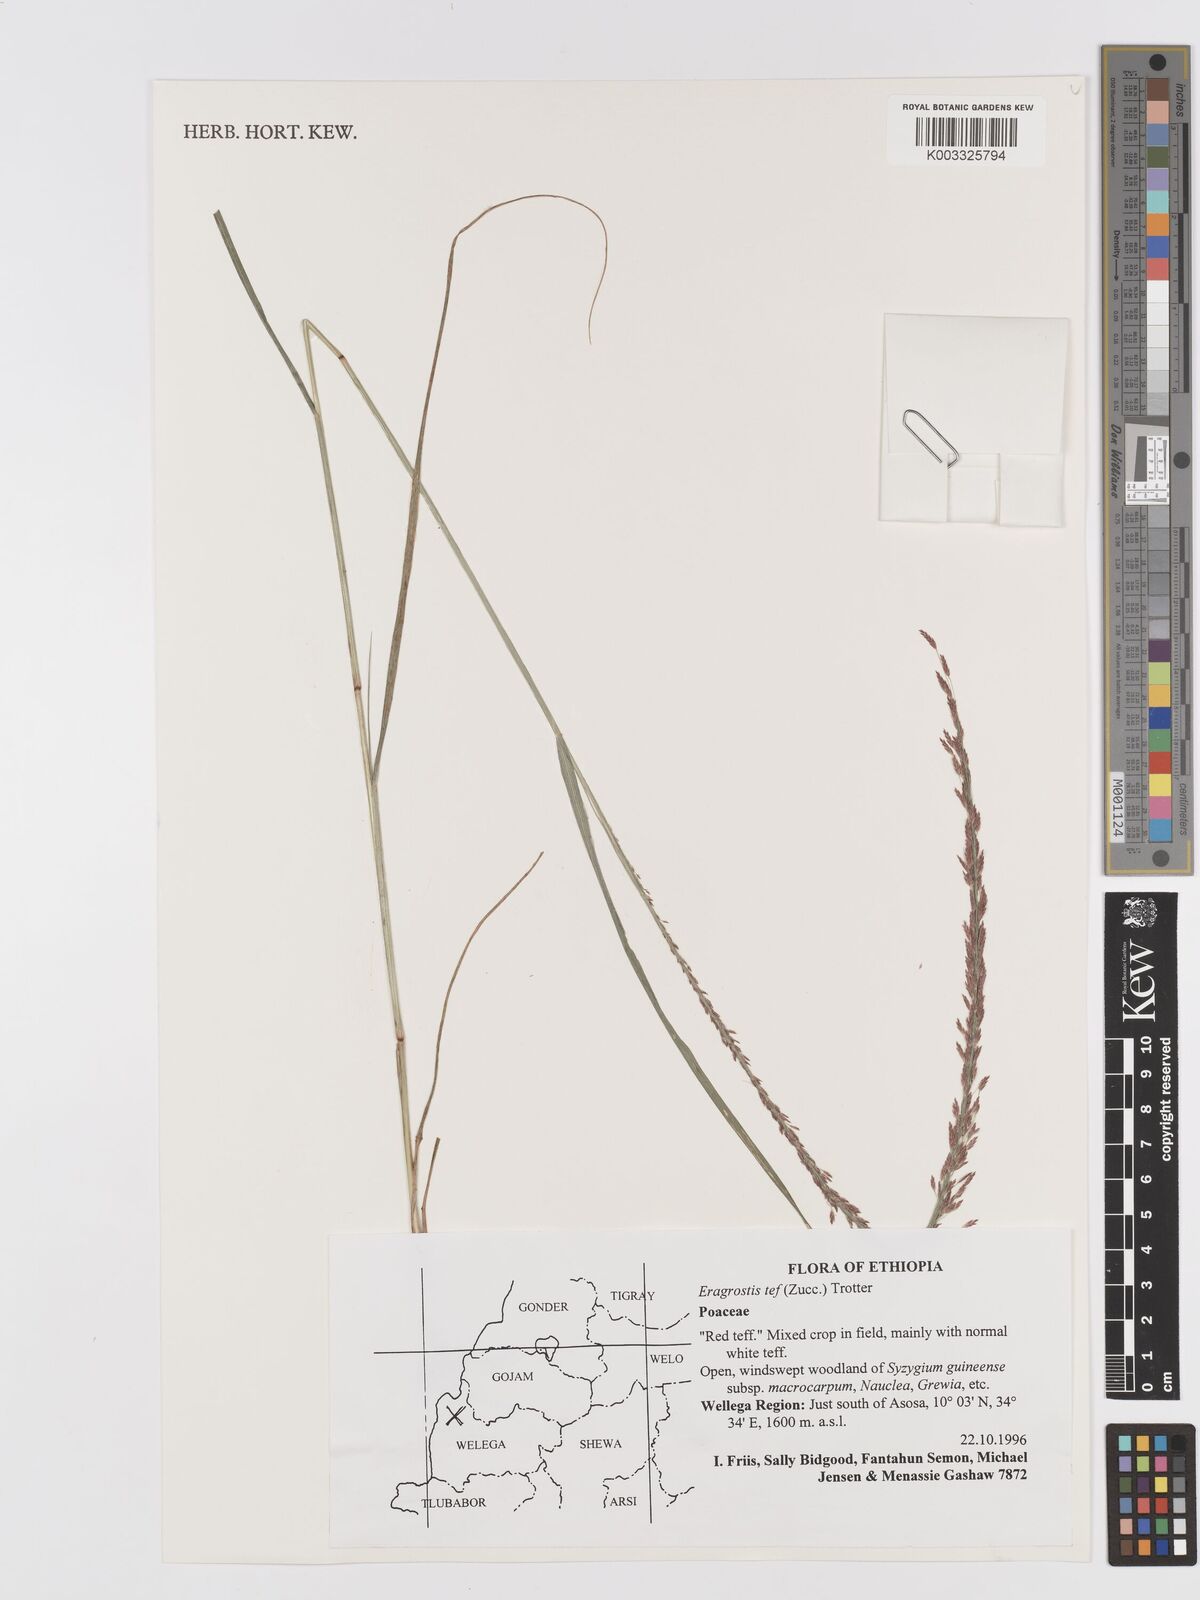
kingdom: Plantae
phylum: Tracheophyta
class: Liliopsida
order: Poales
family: Poaceae
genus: Eragrostis
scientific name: Eragrostis tef
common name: Teff
